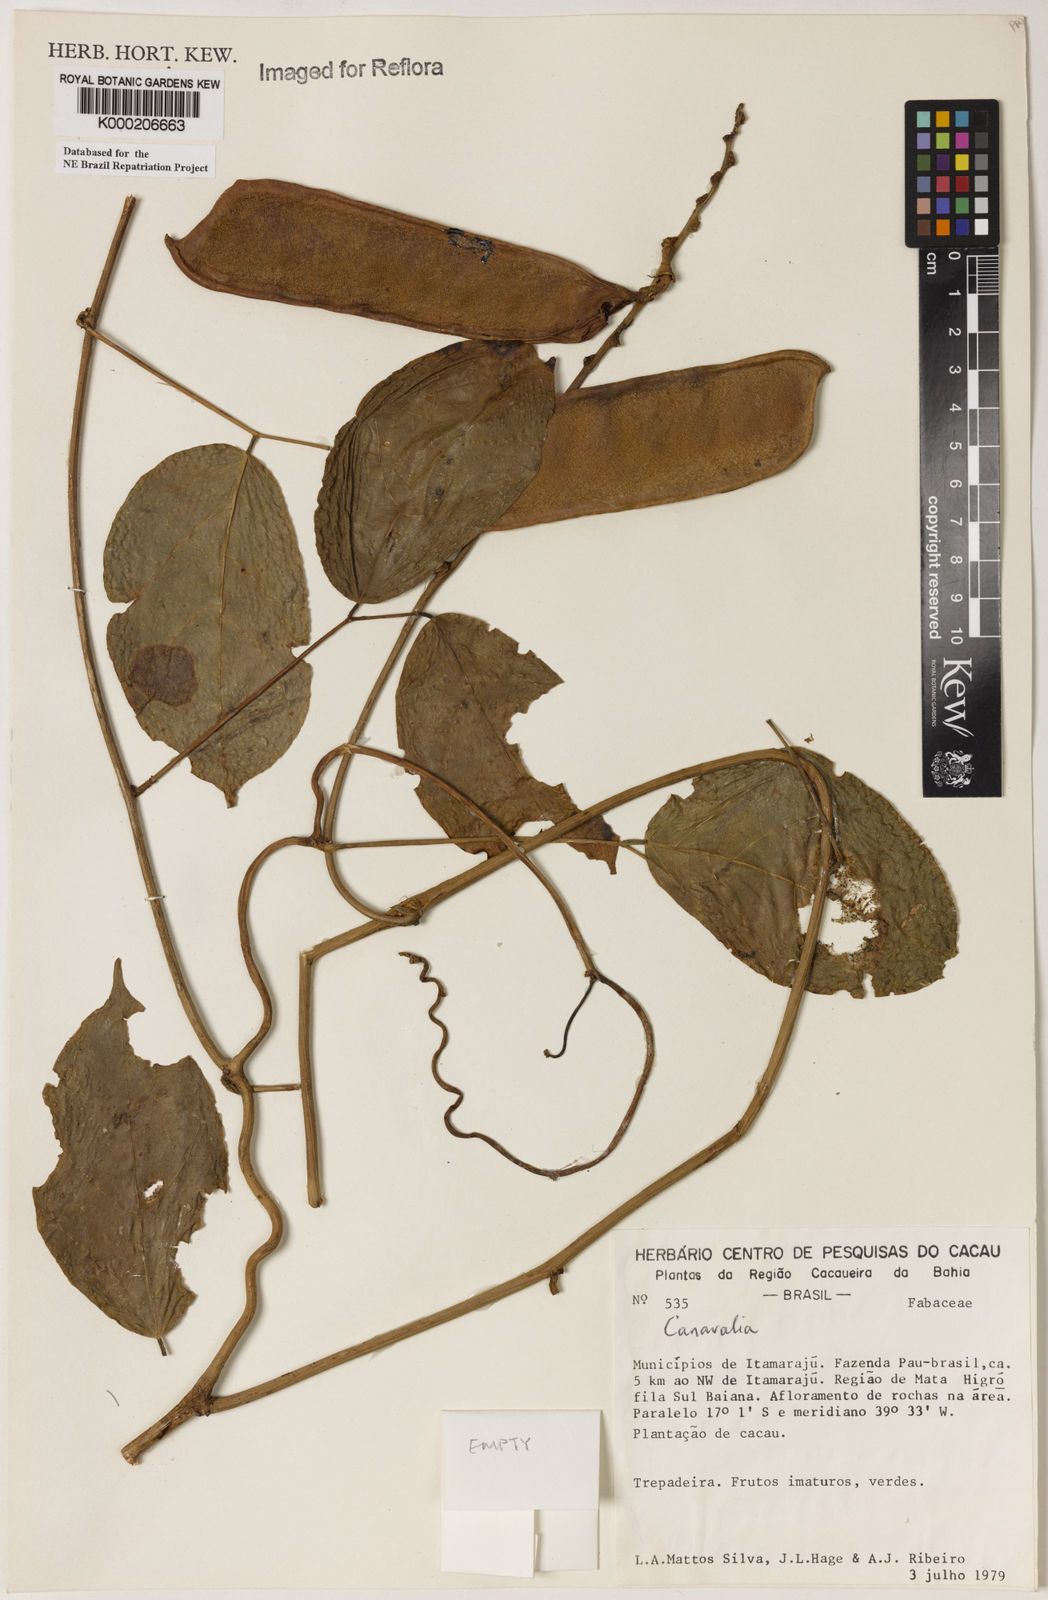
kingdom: Plantae
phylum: Tracheophyta
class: Magnoliopsida
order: Fabales
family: Fabaceae
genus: Canavalia
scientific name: Canavalia
